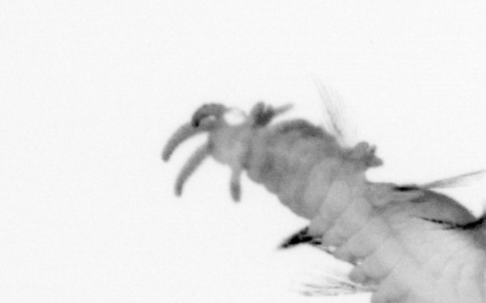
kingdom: Animalia
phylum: Annelida
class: Polychaeta
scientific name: Polychaeta
